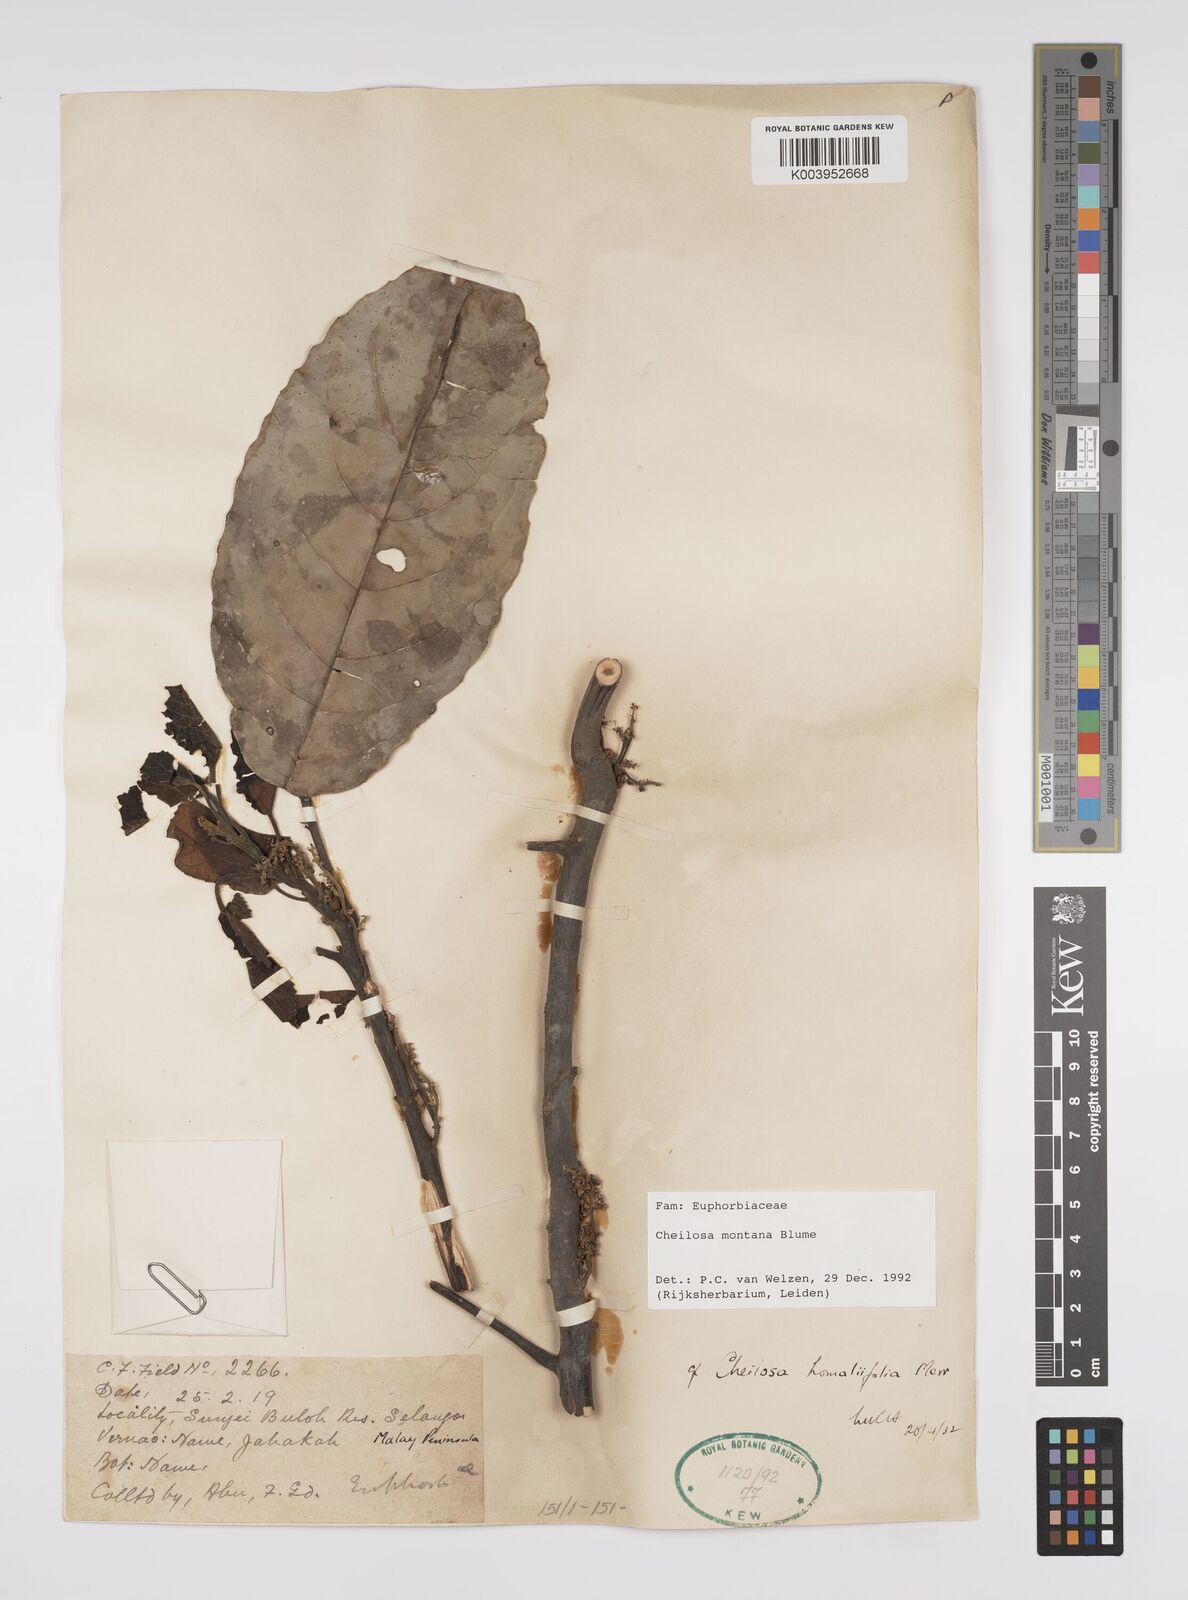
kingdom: Plantae
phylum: Tracheophyta
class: Magnoliopsida
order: Malpighiales
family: Euphorbiaceae
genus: Cheilosa
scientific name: Cheilosa montana
